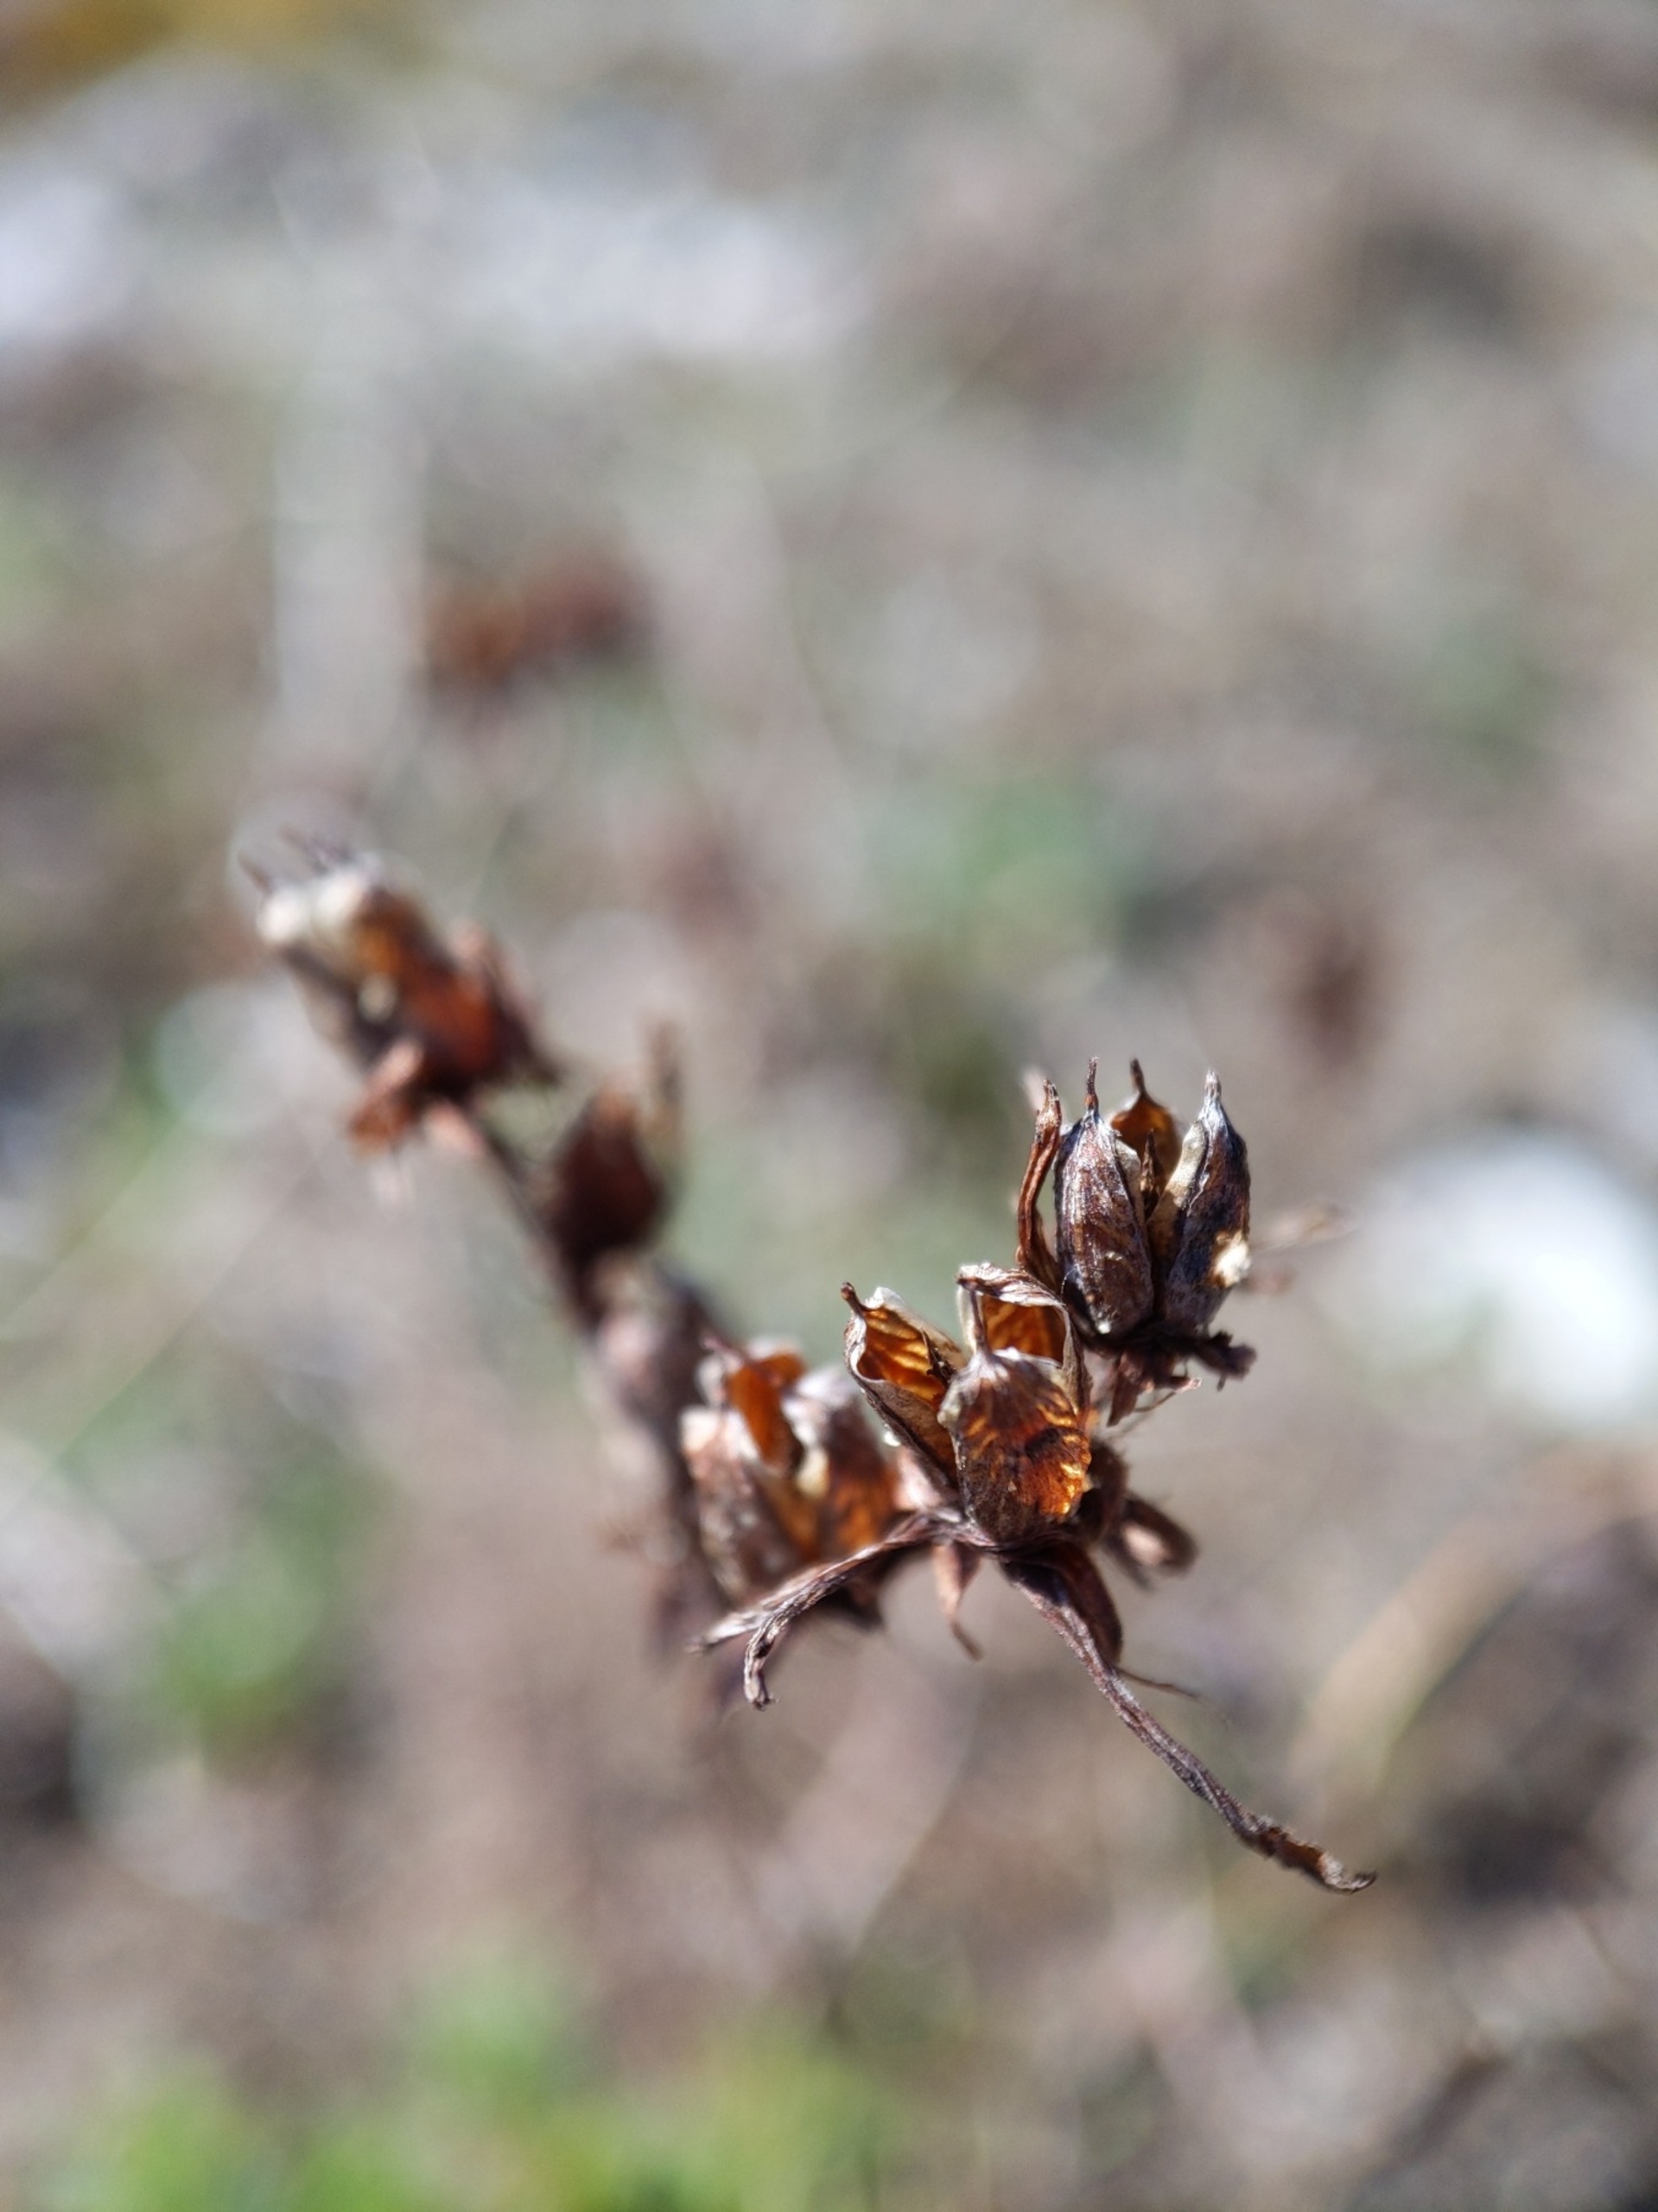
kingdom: Plantae
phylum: Tracheophyta
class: Magnoliopsida
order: Malpighiales
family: Hypericaceae
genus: Hypericum
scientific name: Hypericum perforatum
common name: Prikbladet perikon
